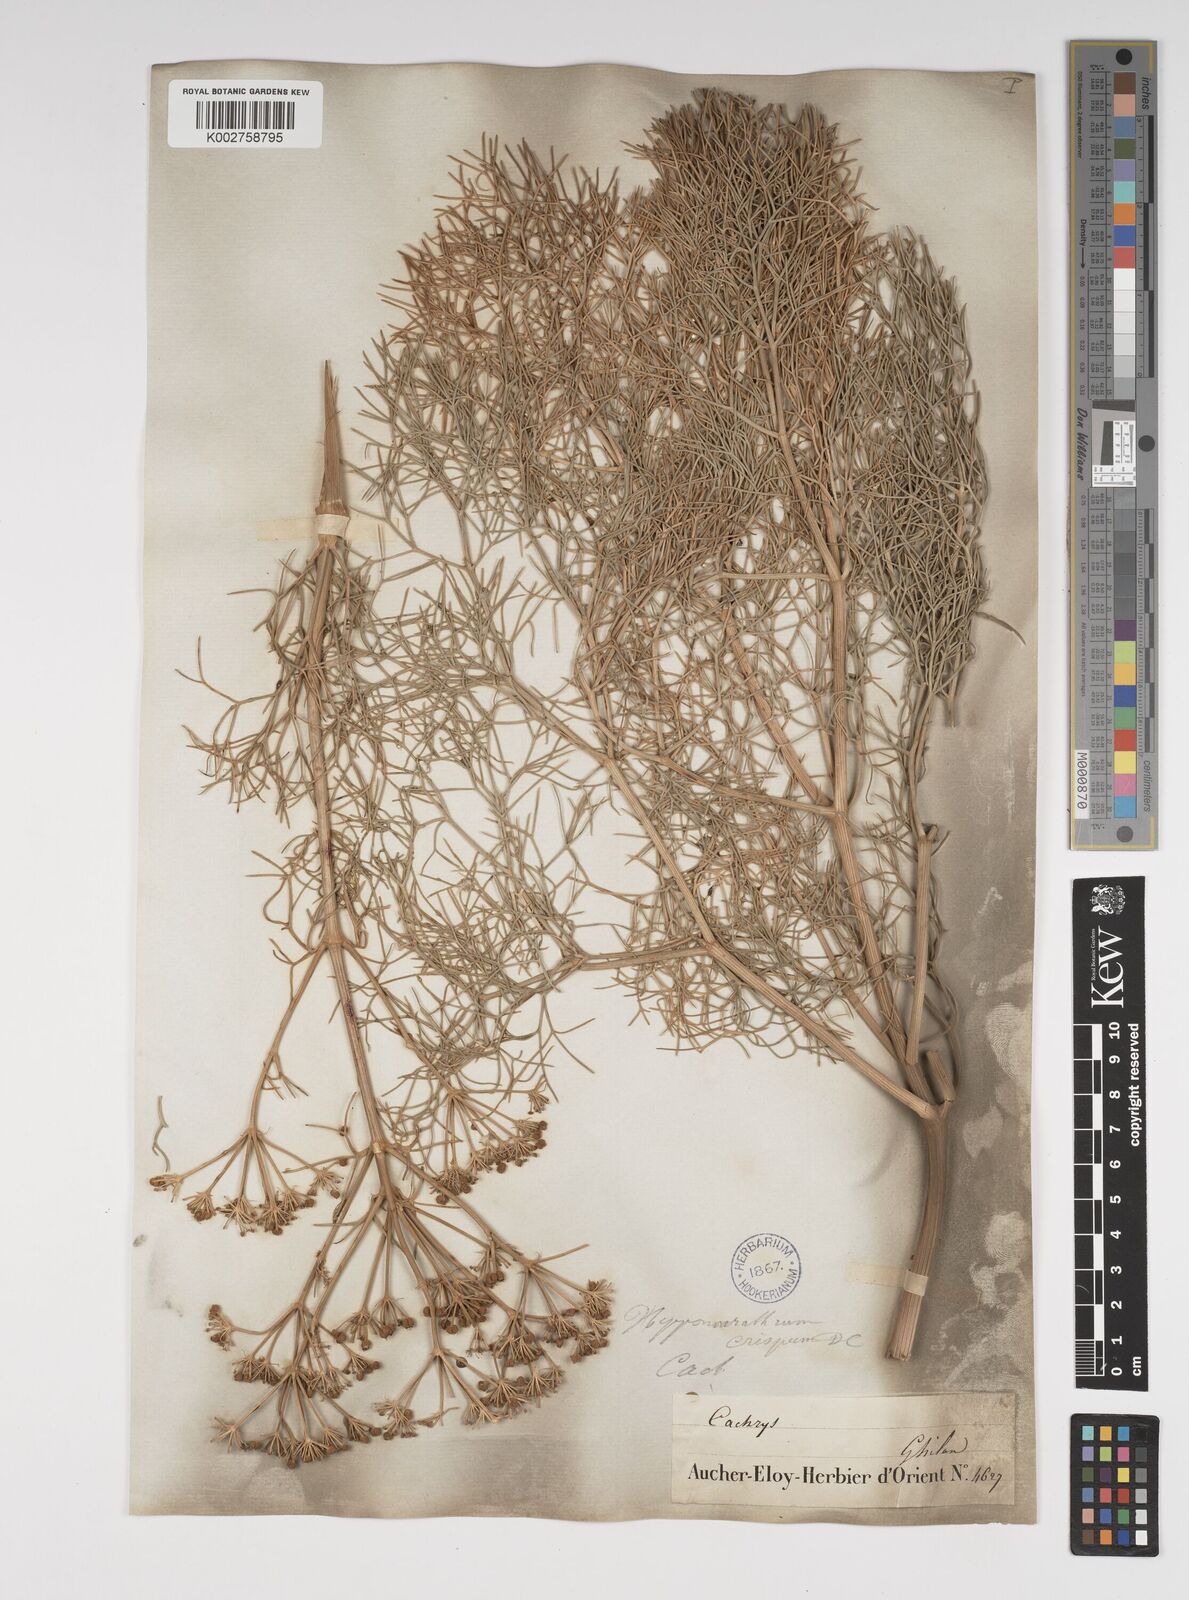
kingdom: Plantae
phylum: Tracheophyta
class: Magnoliopsida
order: Apiales
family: Apiaceae
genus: Bilacunaria
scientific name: Bilacunaria microcarpa
